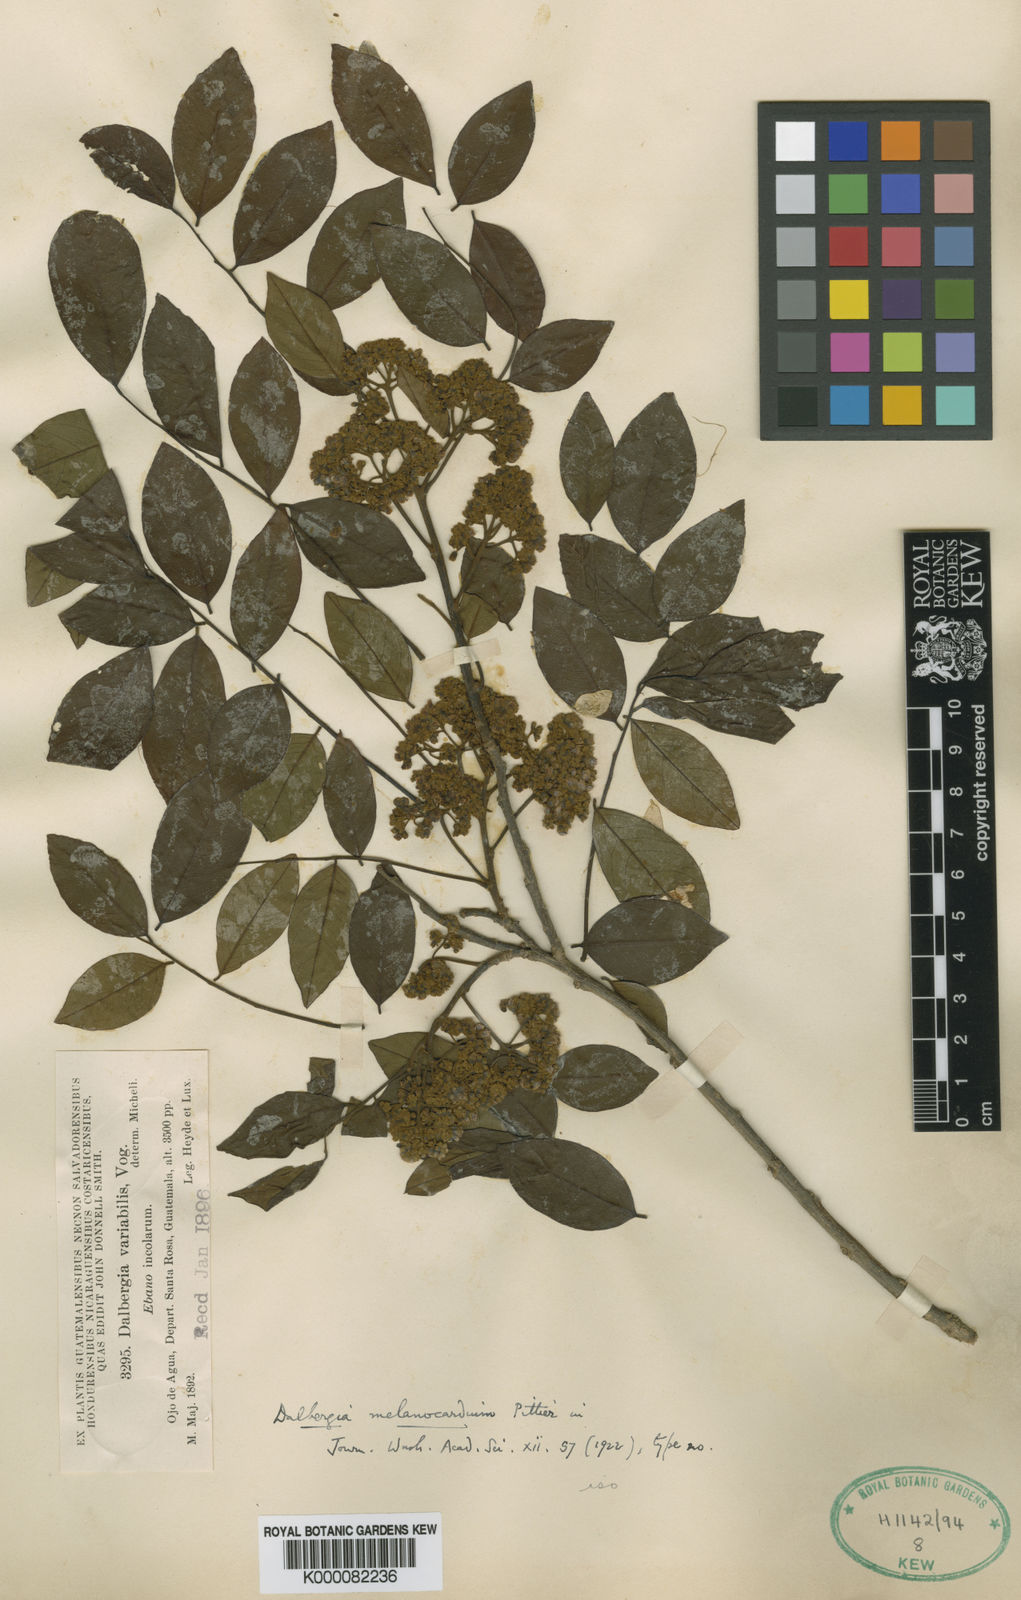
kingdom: Plantae
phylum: Tracheophyta
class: Magnoliopsida
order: Fabales
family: Fabaceae
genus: Dalbergia
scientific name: Dalbergia melanocardium
